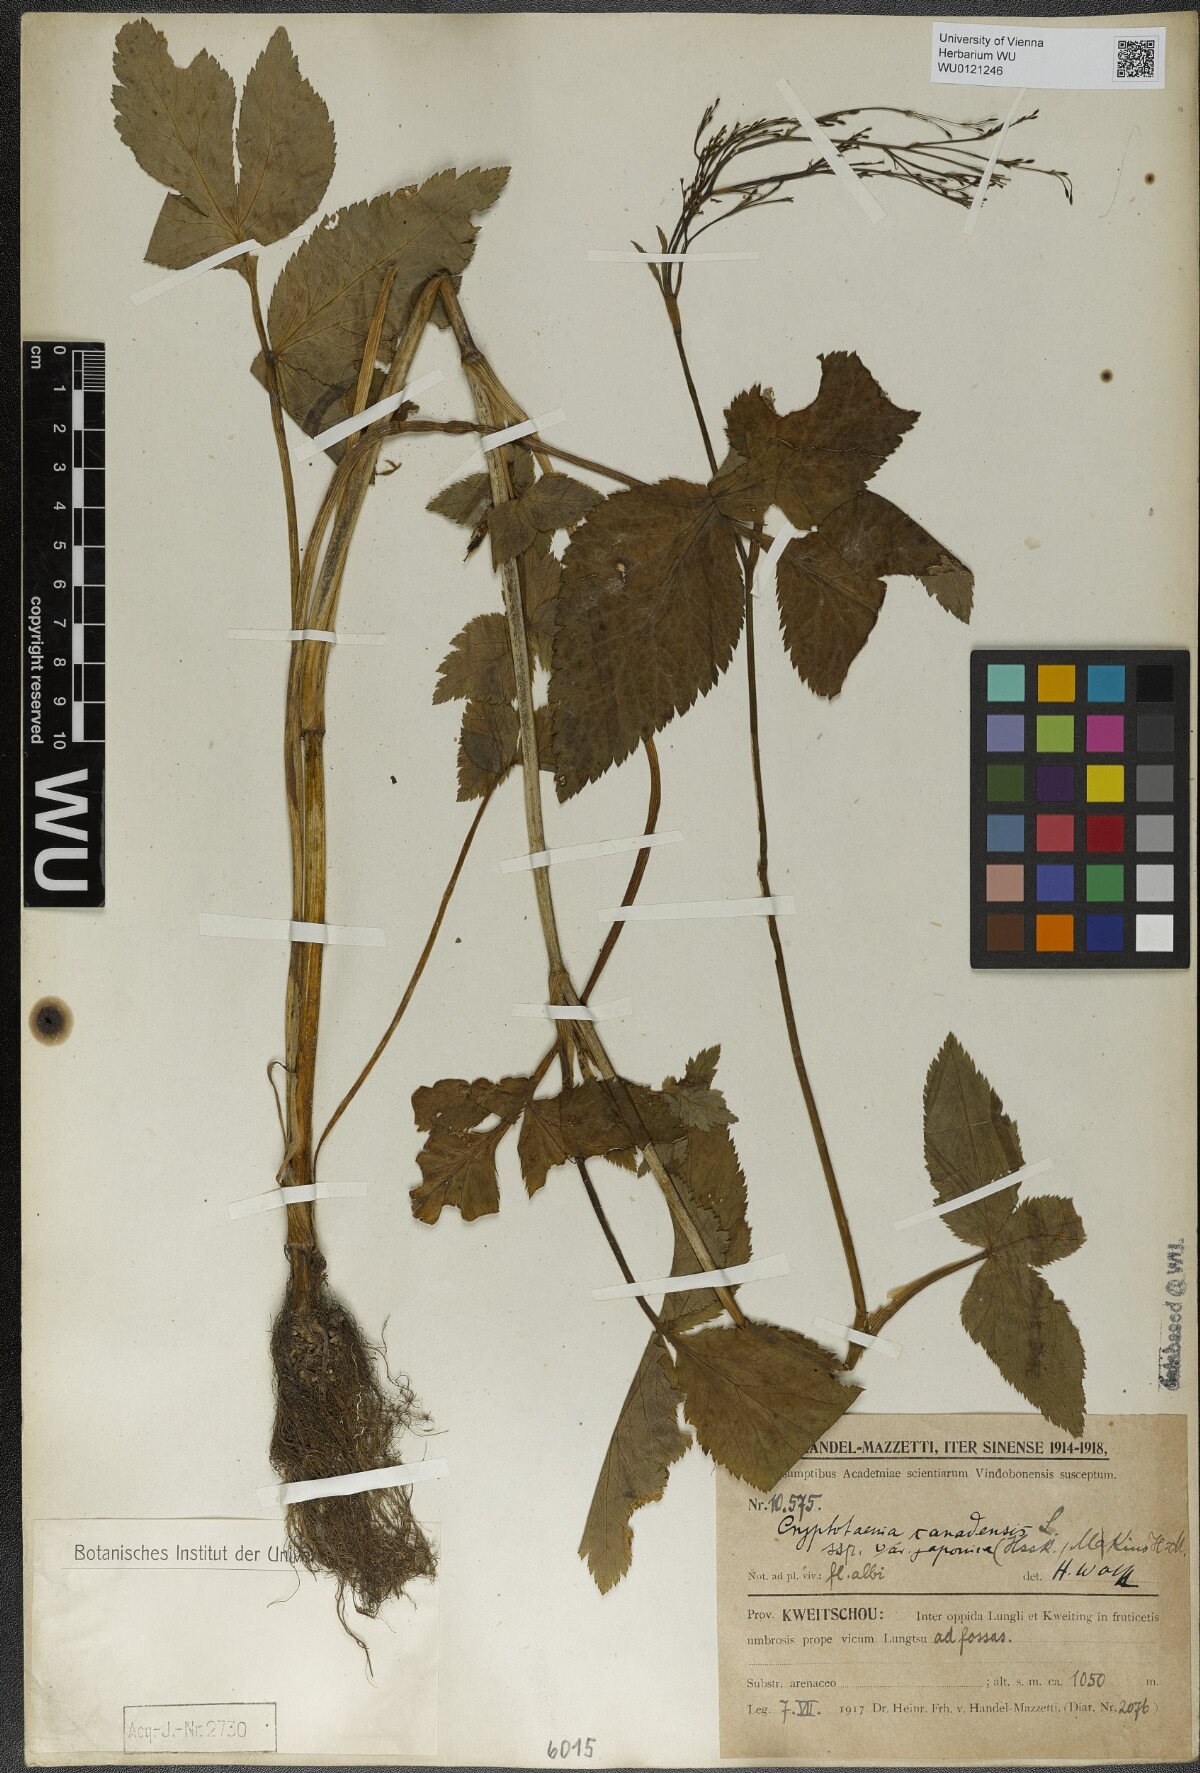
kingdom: Plantae
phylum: Tracheophyta
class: Magnoliopsida
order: Apiales
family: Apiaceae
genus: Cryptotaenia
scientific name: Cryptotaenia japonica
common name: Japanese cryptotaenia
